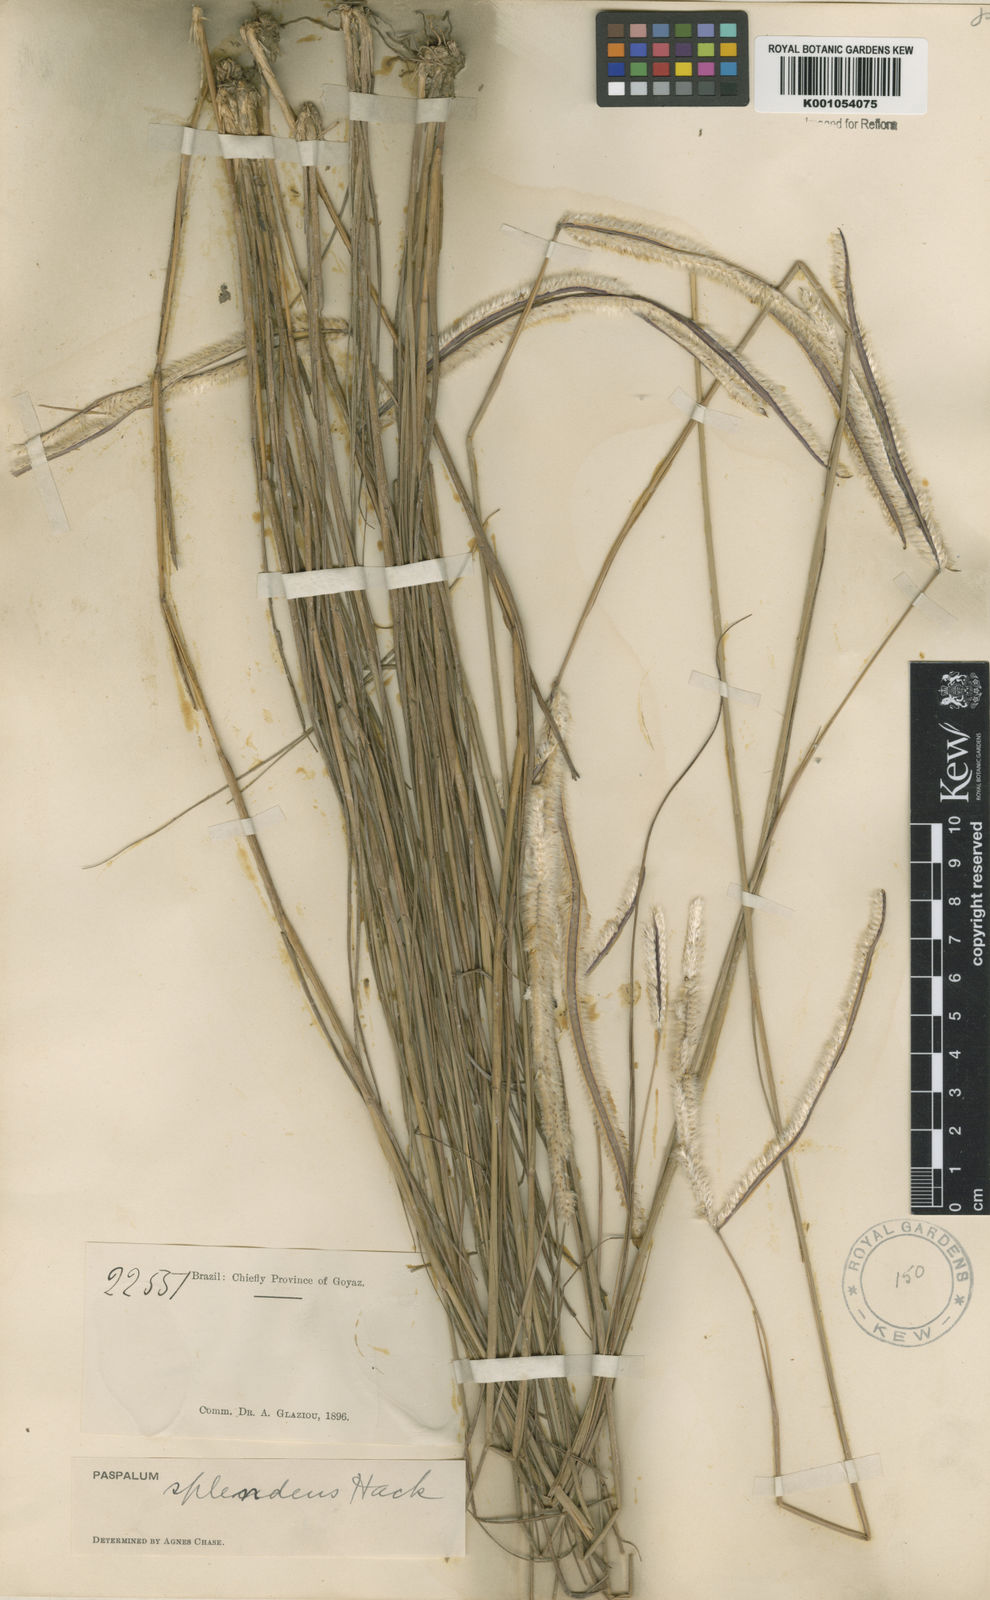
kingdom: Plantae
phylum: Tracheophyta
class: Liliopsida
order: Poales
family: Poaceae
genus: Paspalum
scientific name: Paspalum eucomum
